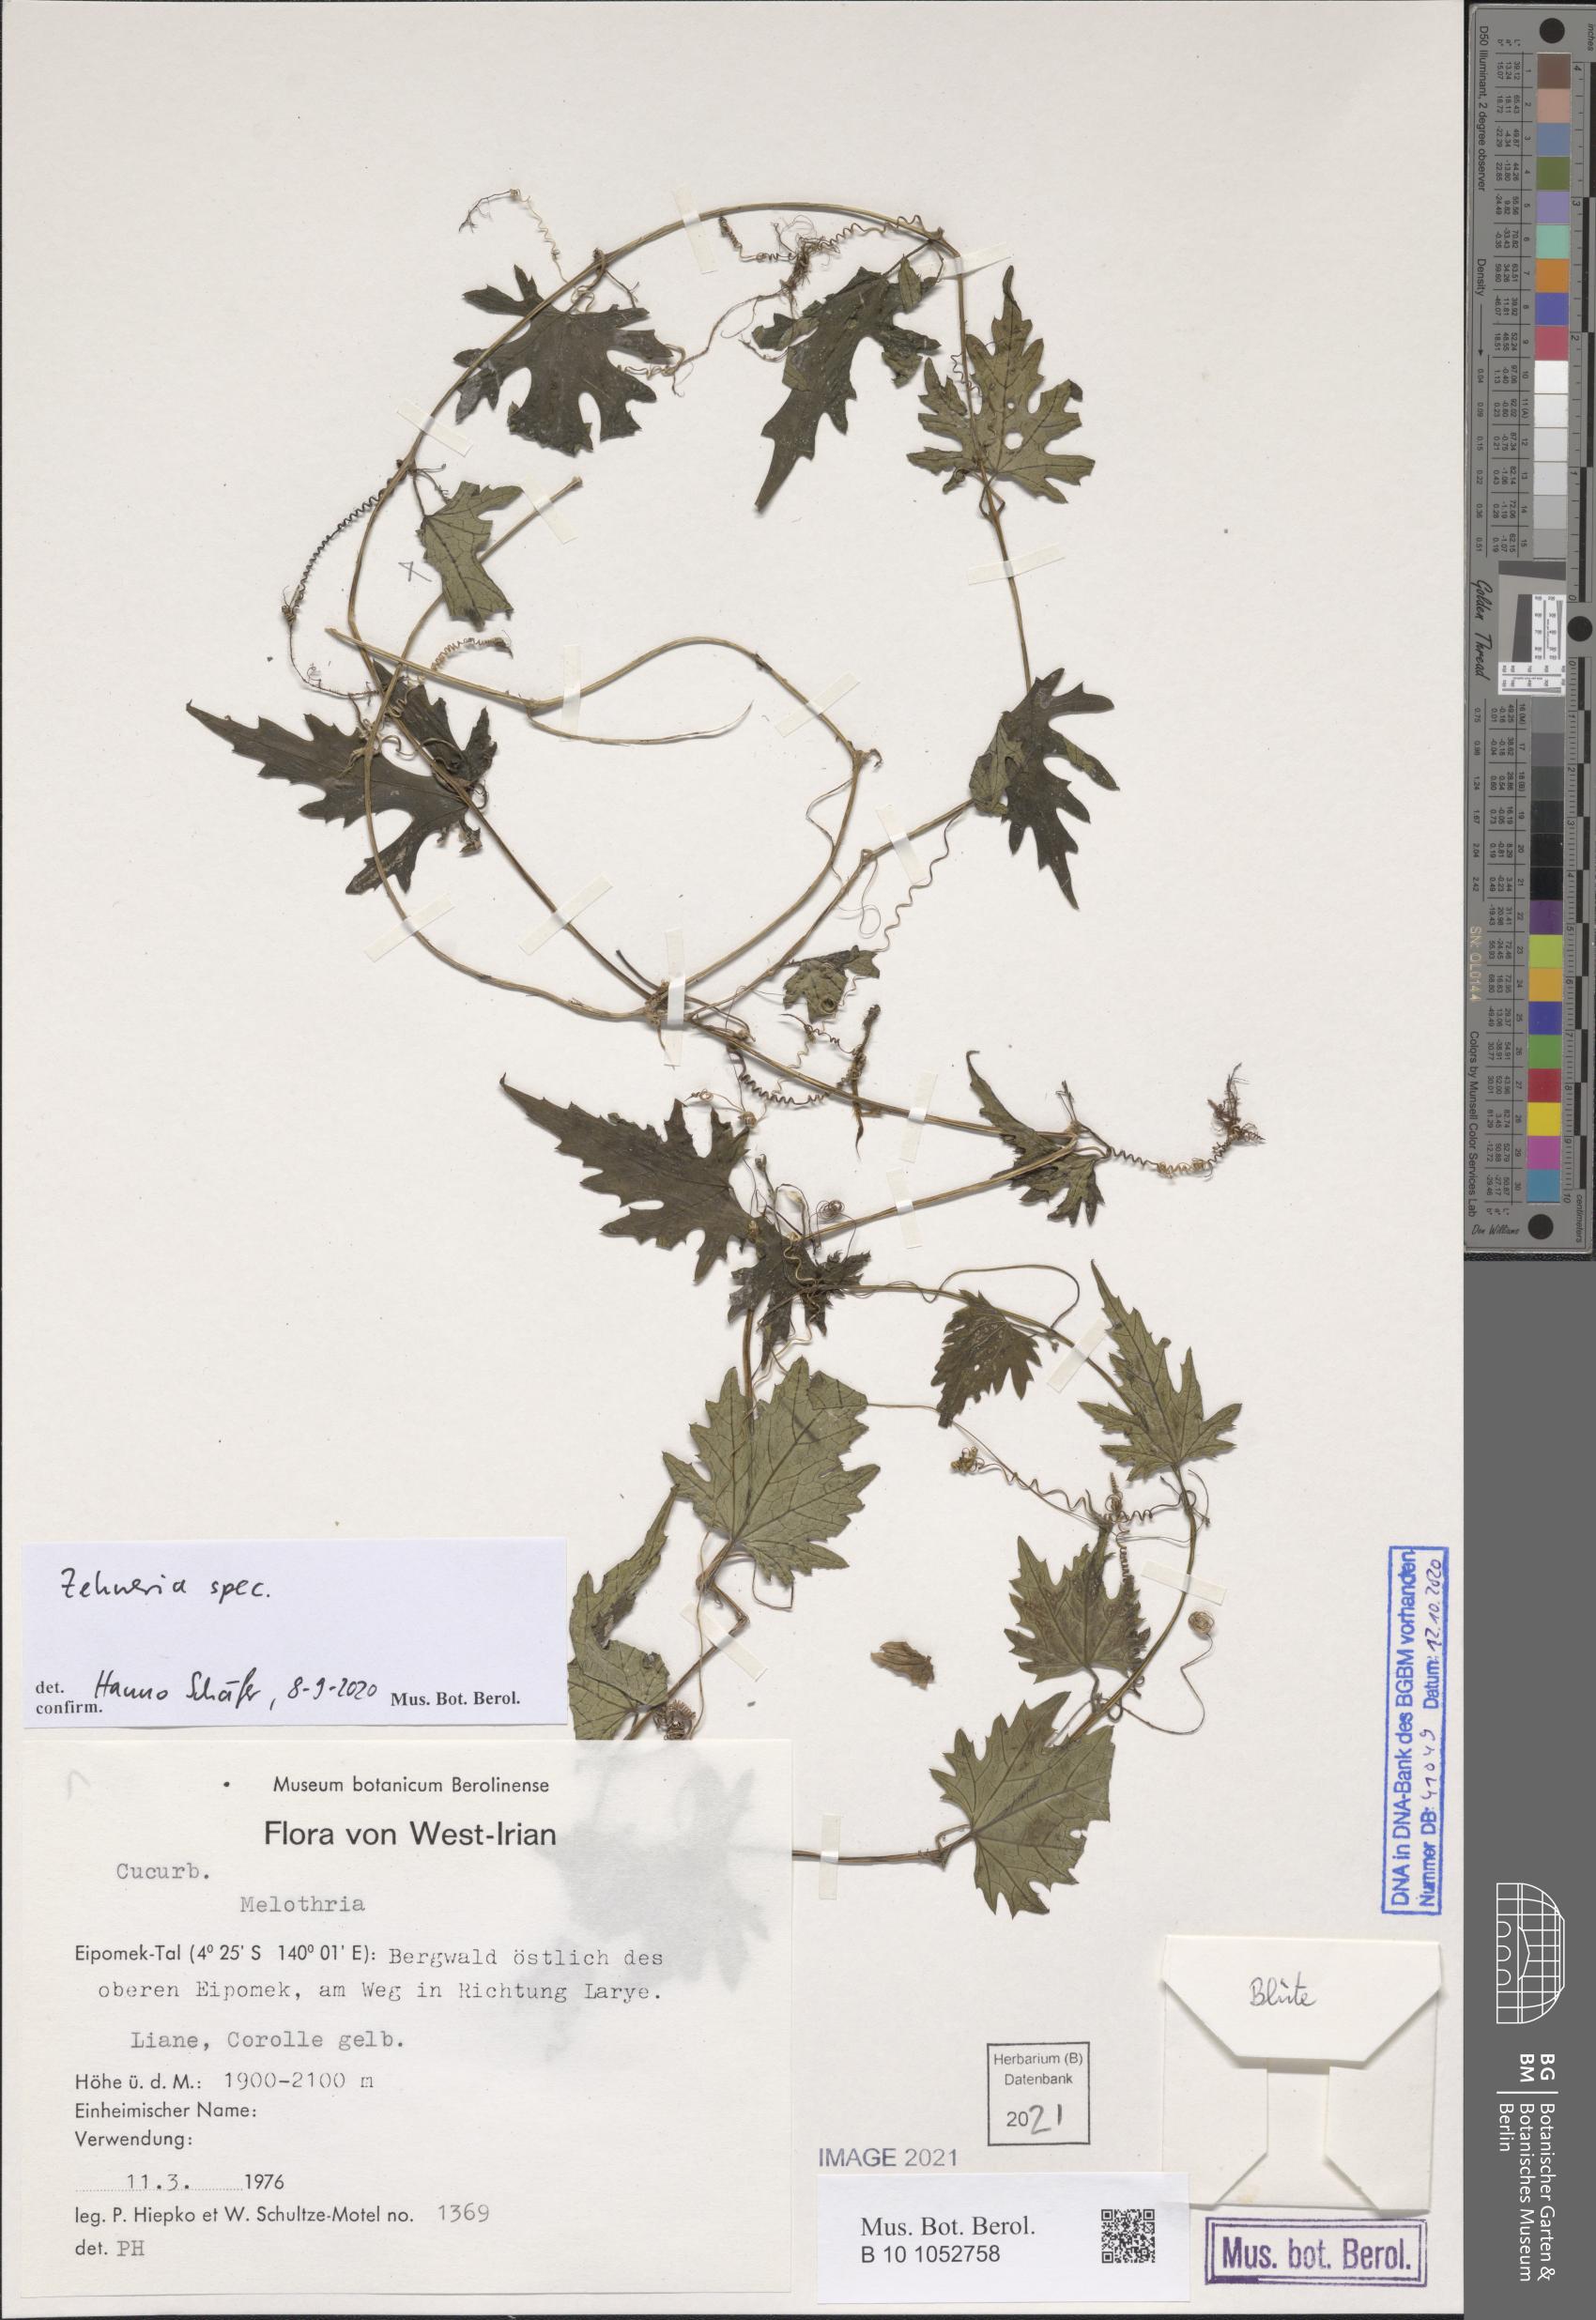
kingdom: Plantae
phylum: Tracheophyta
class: Magnoliopsida
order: Cucurbitales
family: Cucurbitaceae
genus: Zehneria
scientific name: Zehneria
